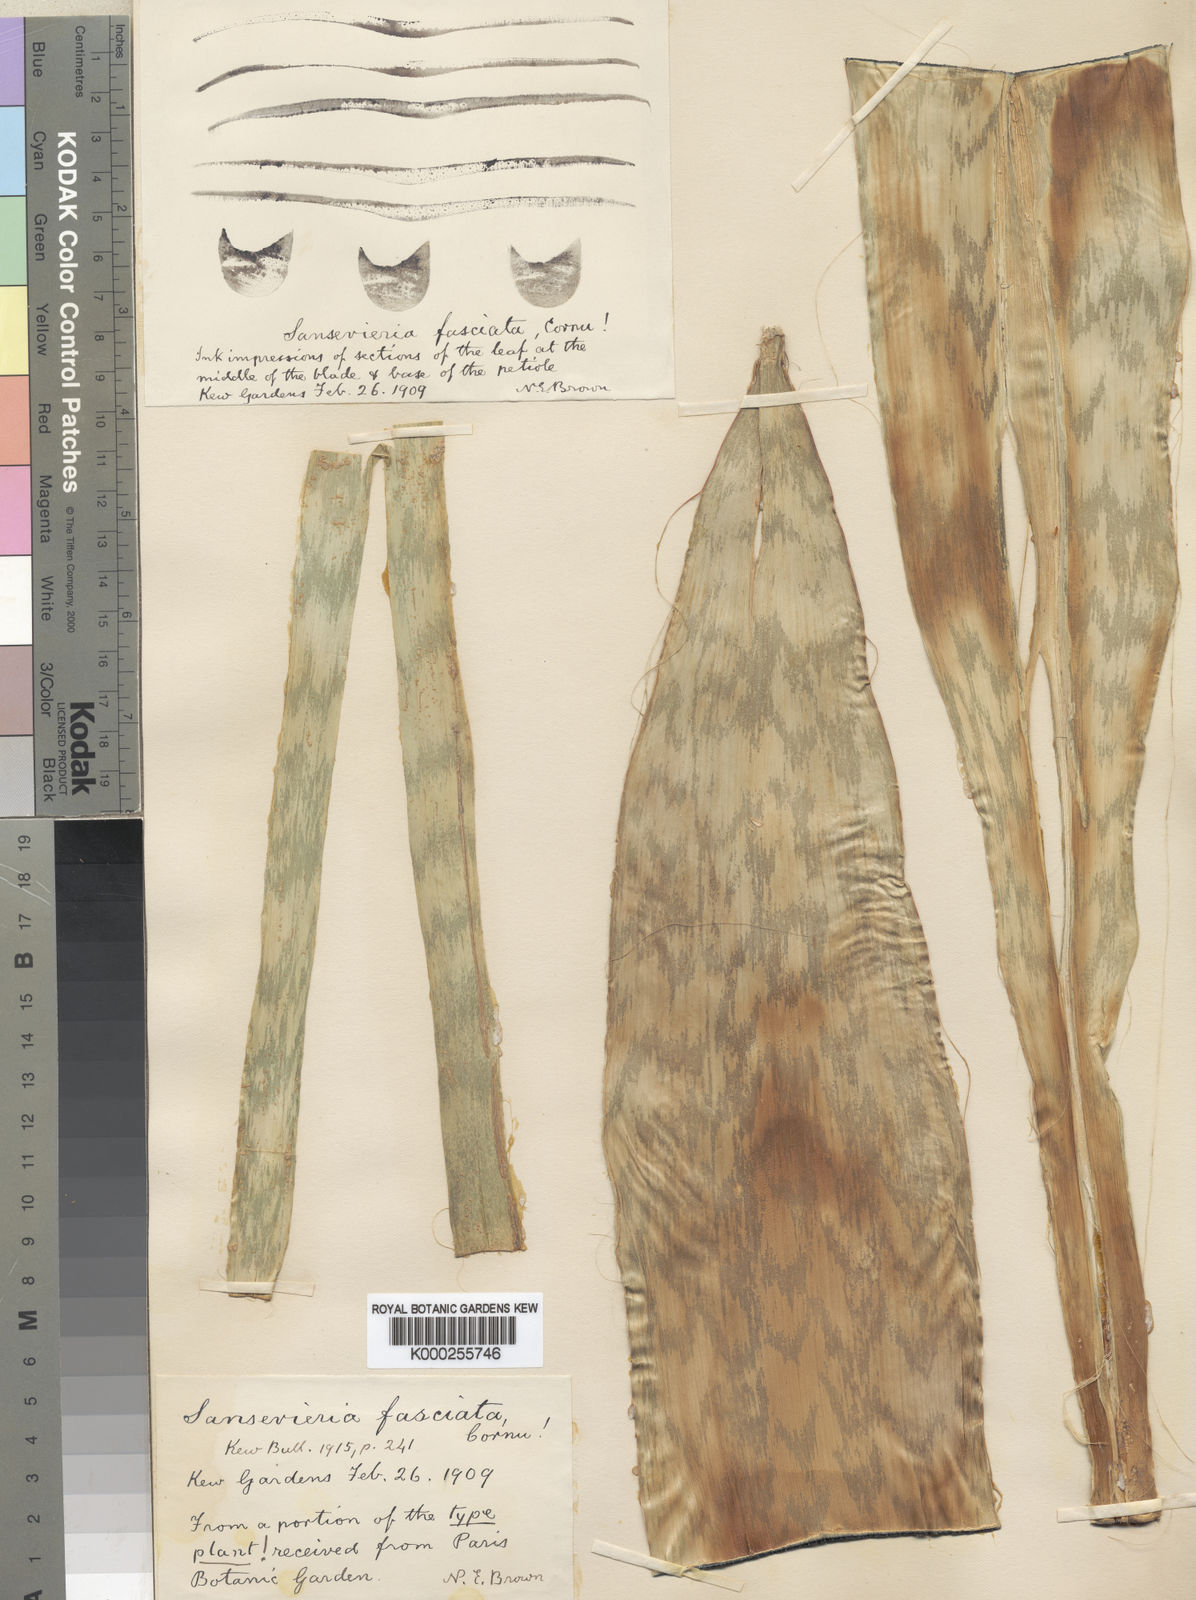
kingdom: Plantae
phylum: Tracheophyta
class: Liliopsida
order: Asparagales
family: Asparagaceae
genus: Dracaena
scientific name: Dracaena fasciata
